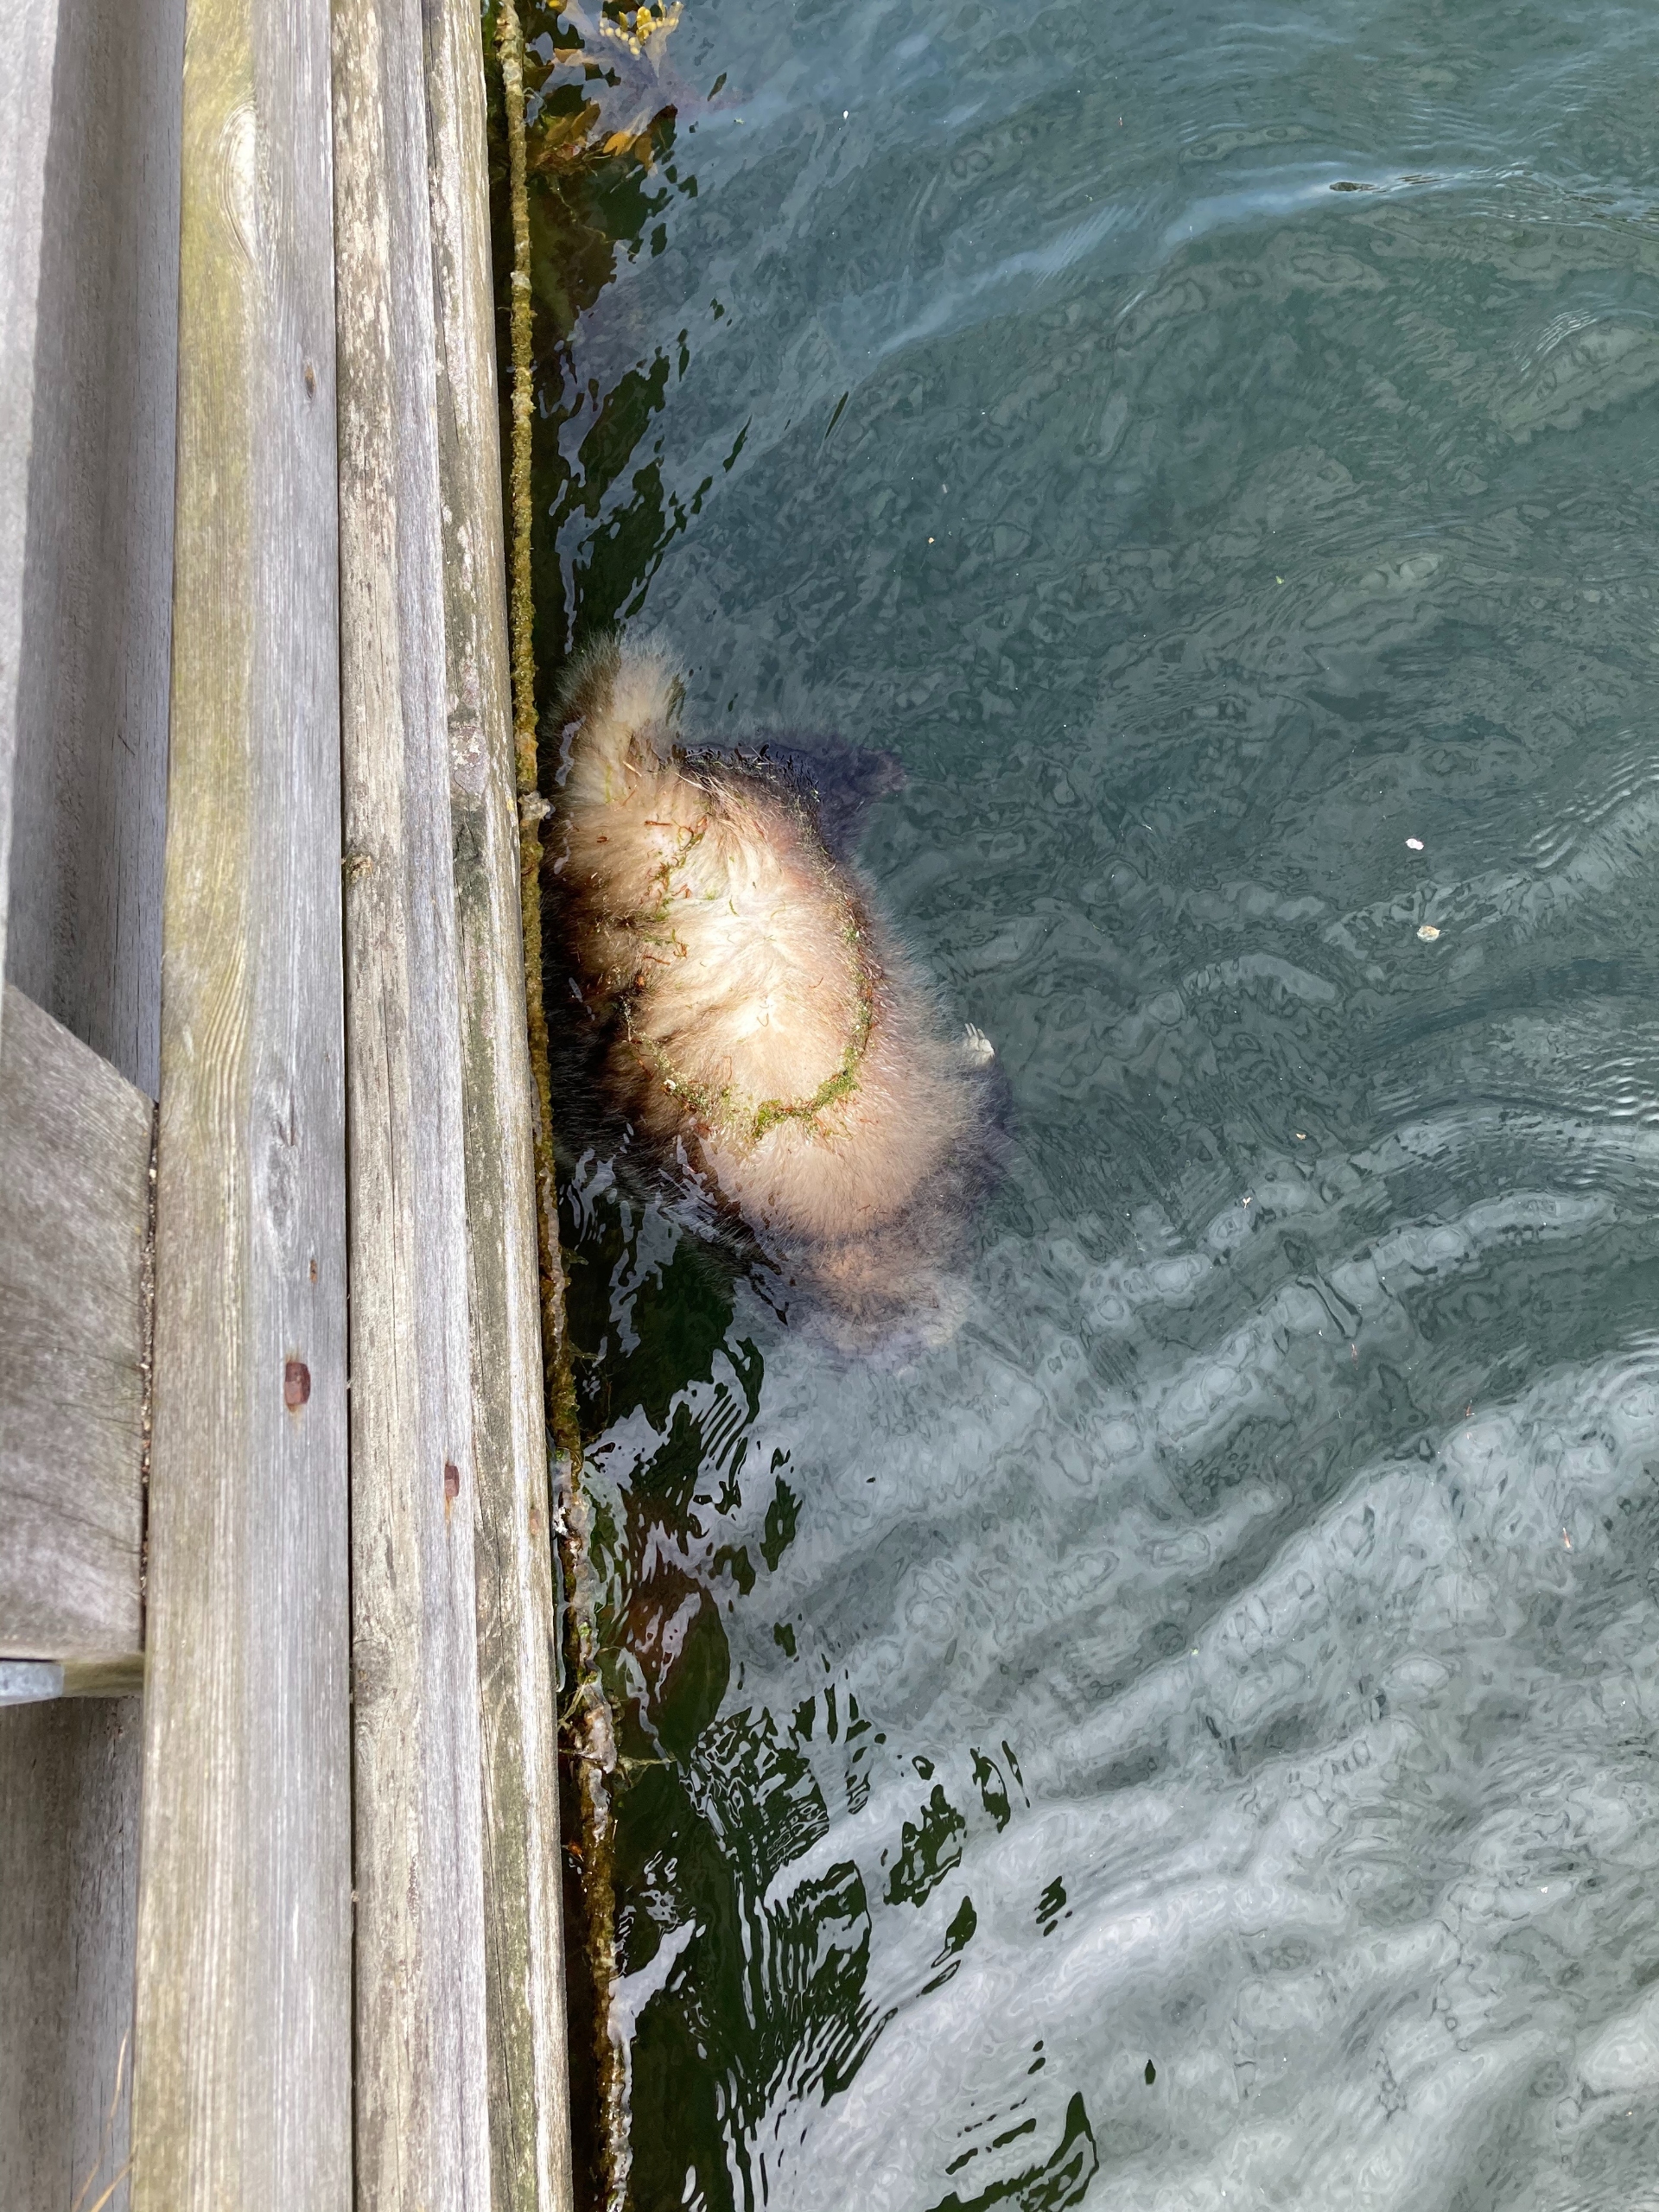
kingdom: Animalia
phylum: Chordata
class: Mammalia
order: Carnivora
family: Canidae
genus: Nyctereutes
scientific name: Nyctereutes procyonoides
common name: Mårhund
